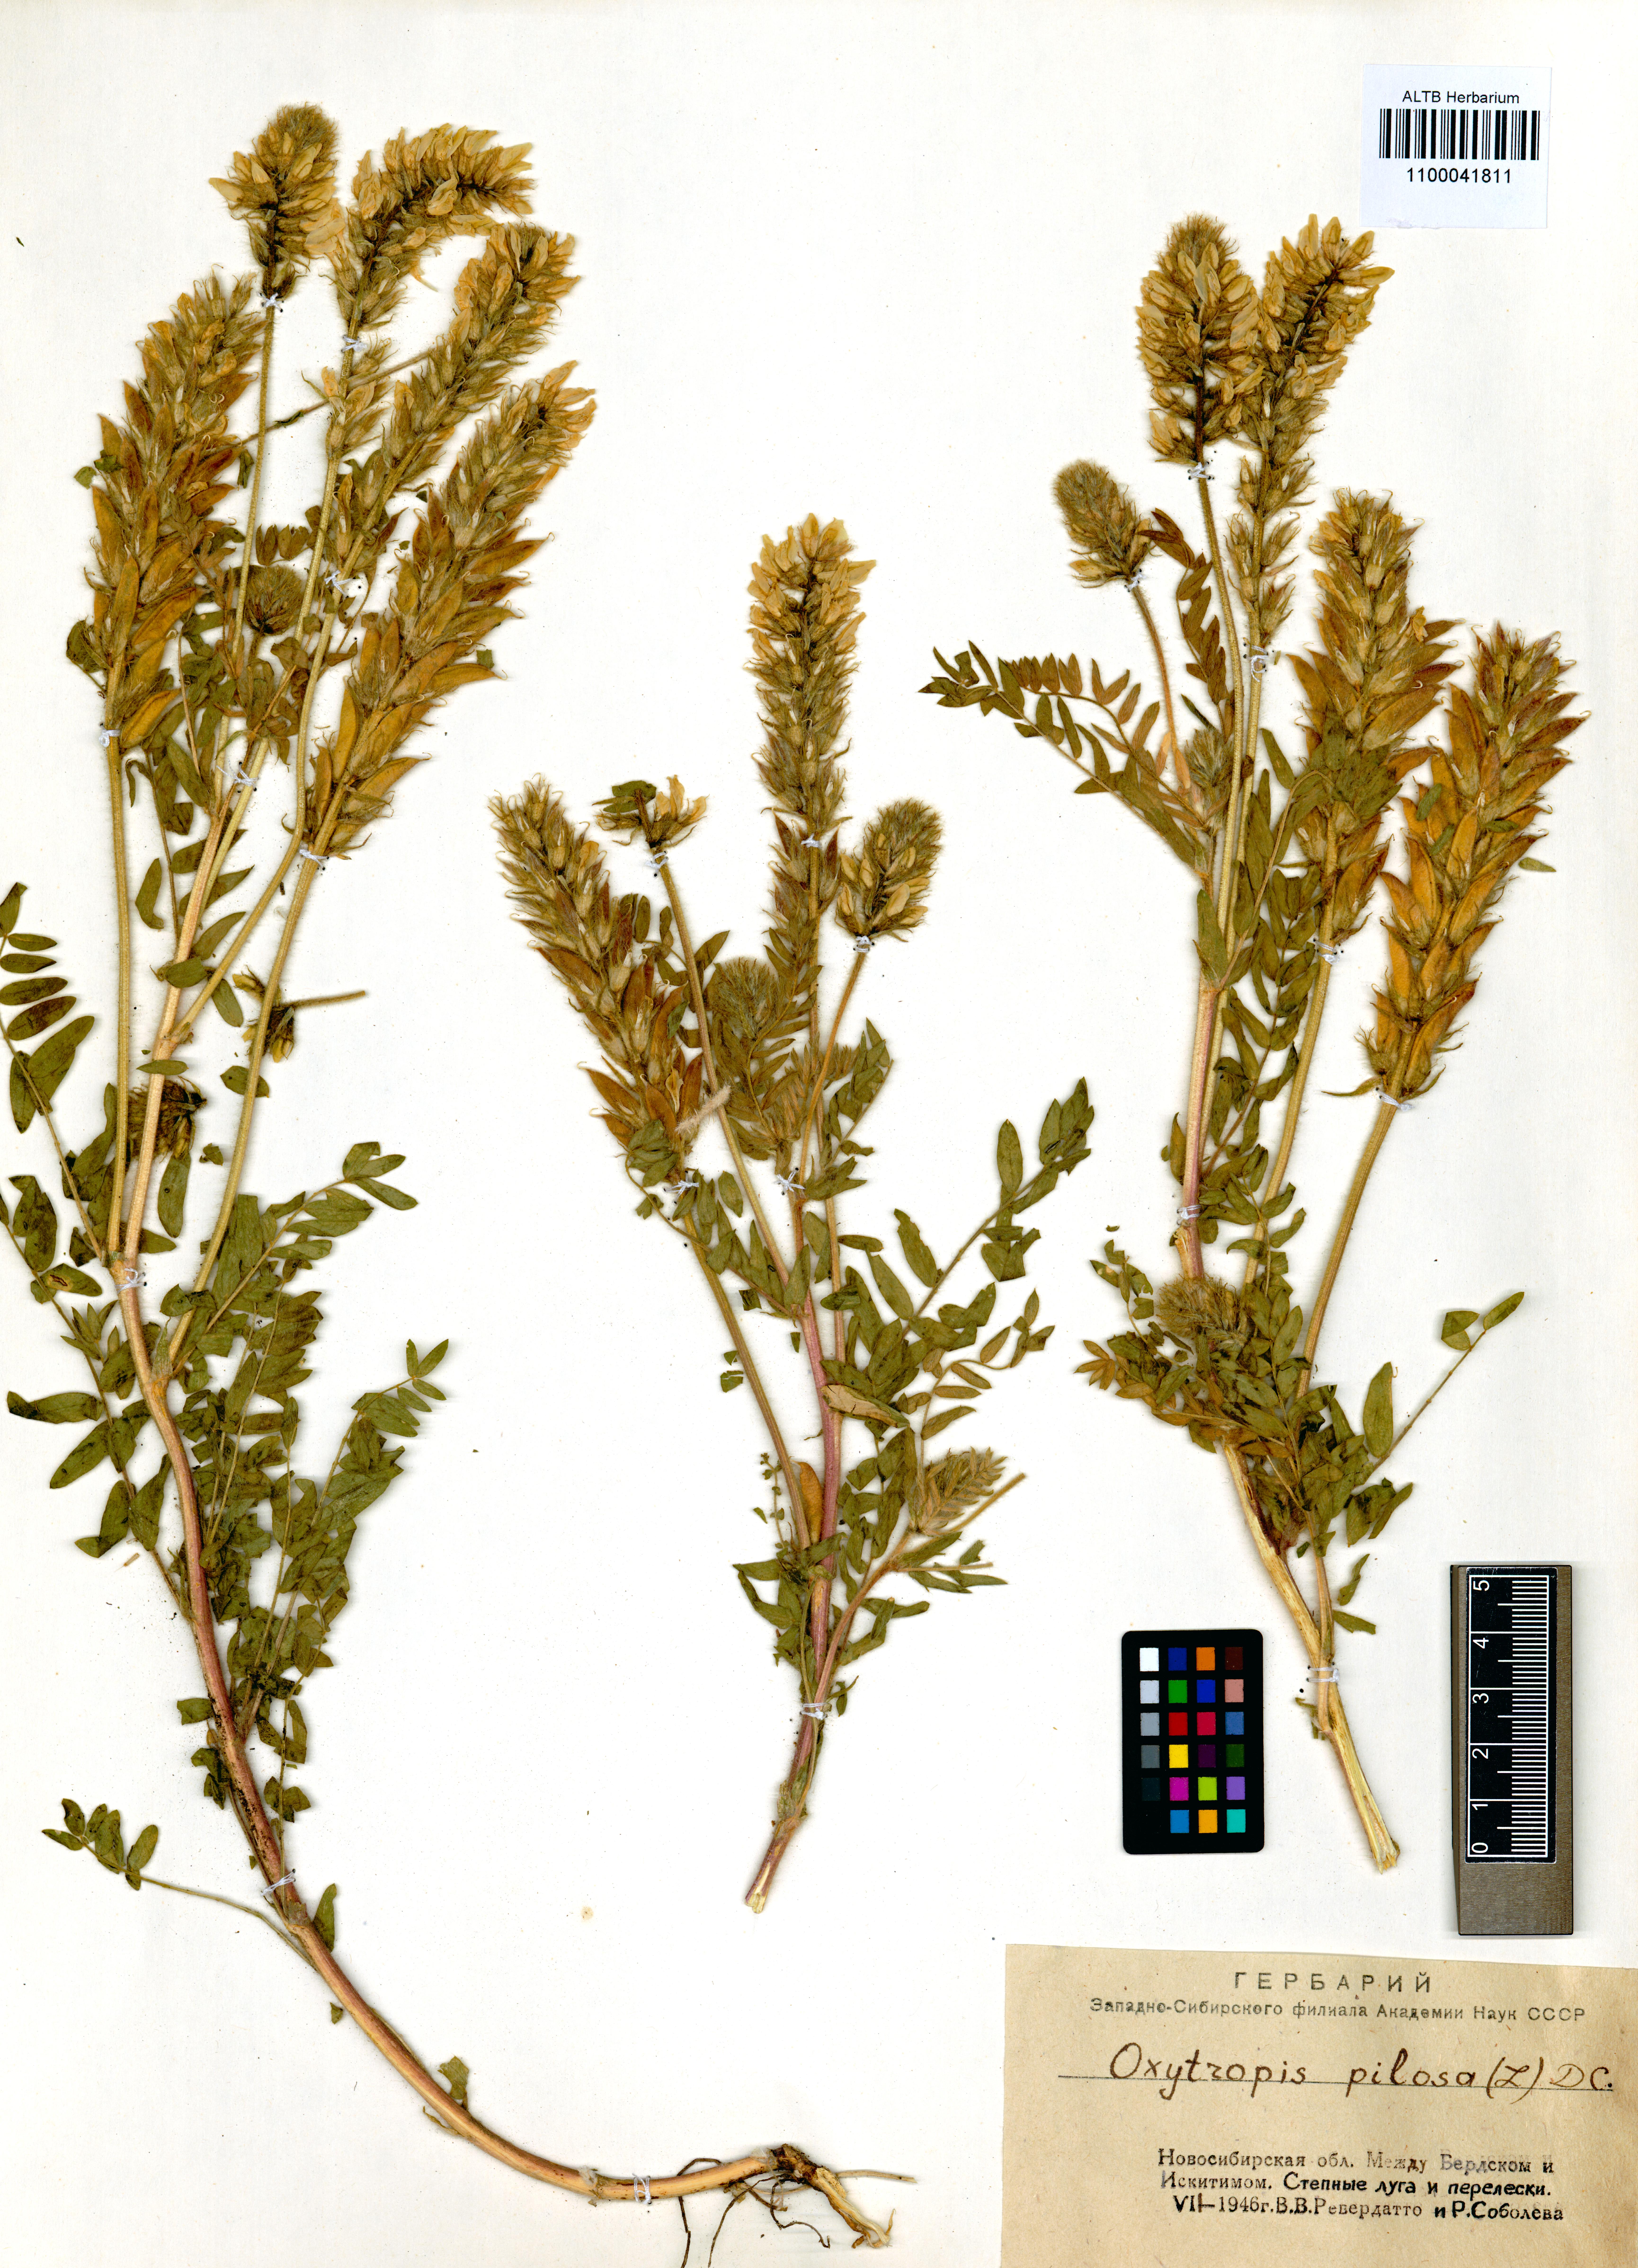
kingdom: Plantae
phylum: Tracheophyta
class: Magnoliopsida
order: Fabales
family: Fabaceae
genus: Oxytropis
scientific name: Oxytropis pilosa
